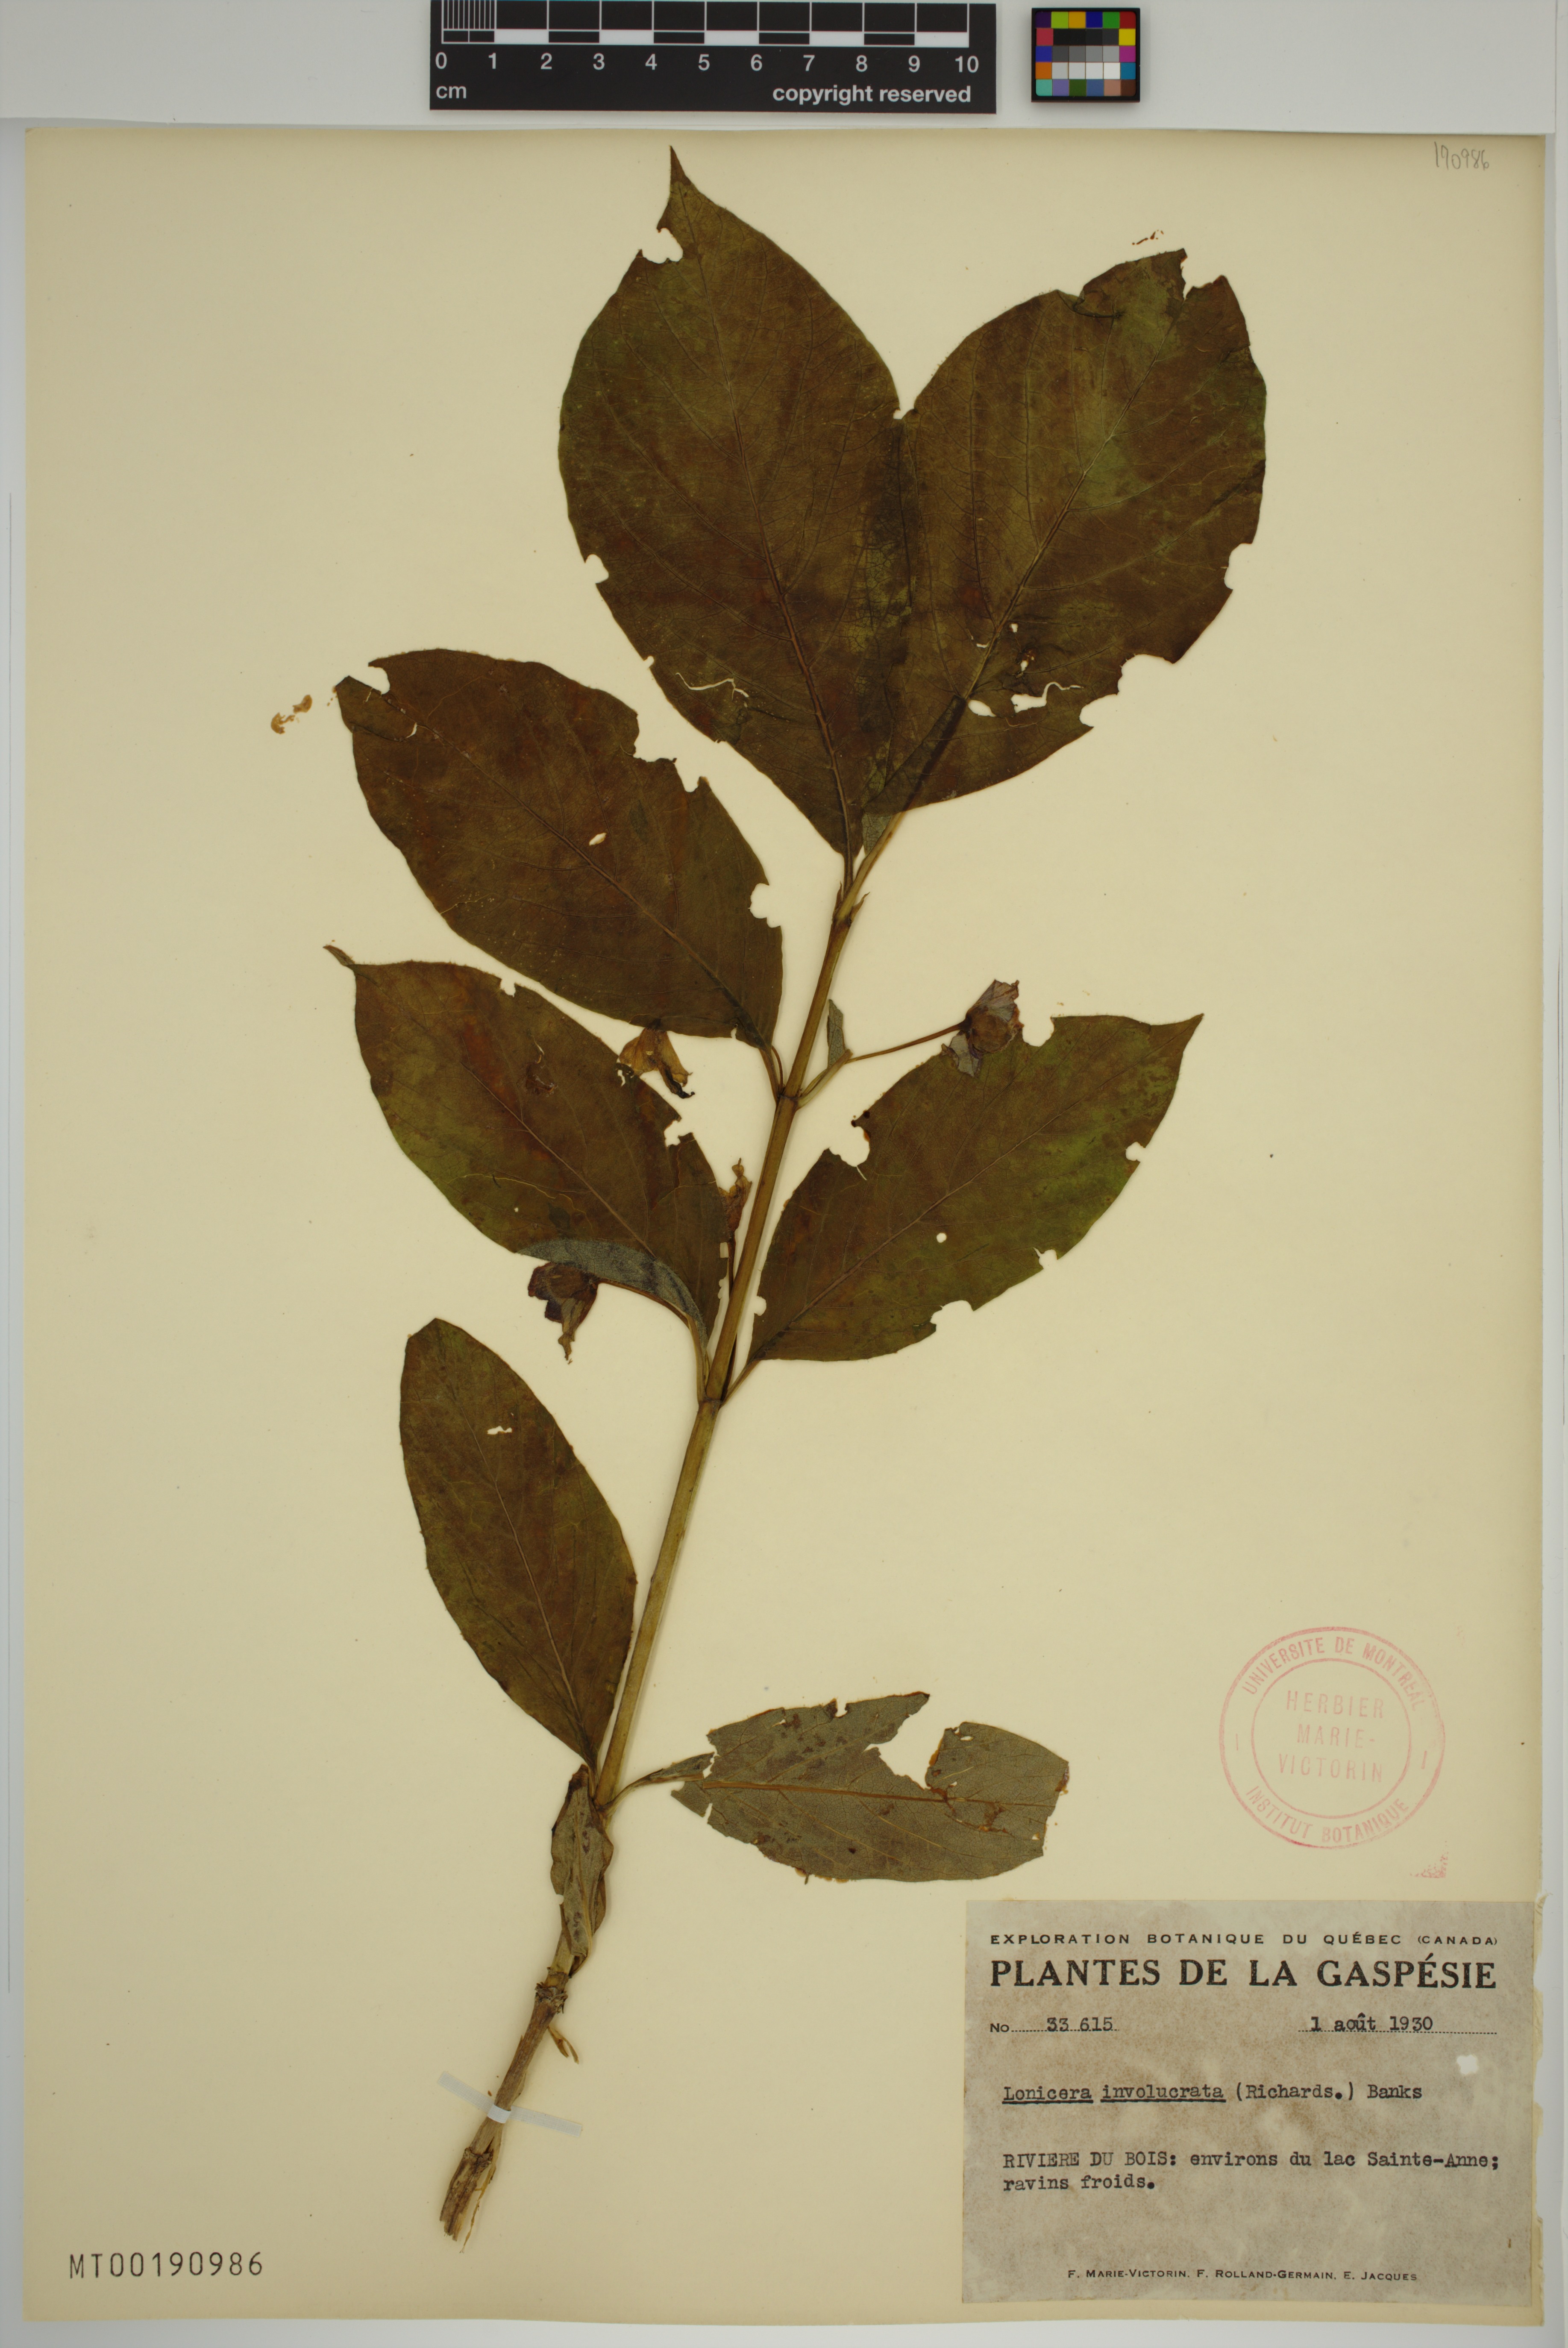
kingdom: Plantae
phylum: Tracheophyta
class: Magnoliopsida
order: Dipsacales
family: Caprifoliaceae
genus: Lonicera
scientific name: Lonicera involucrata
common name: Californian honeysuckle
